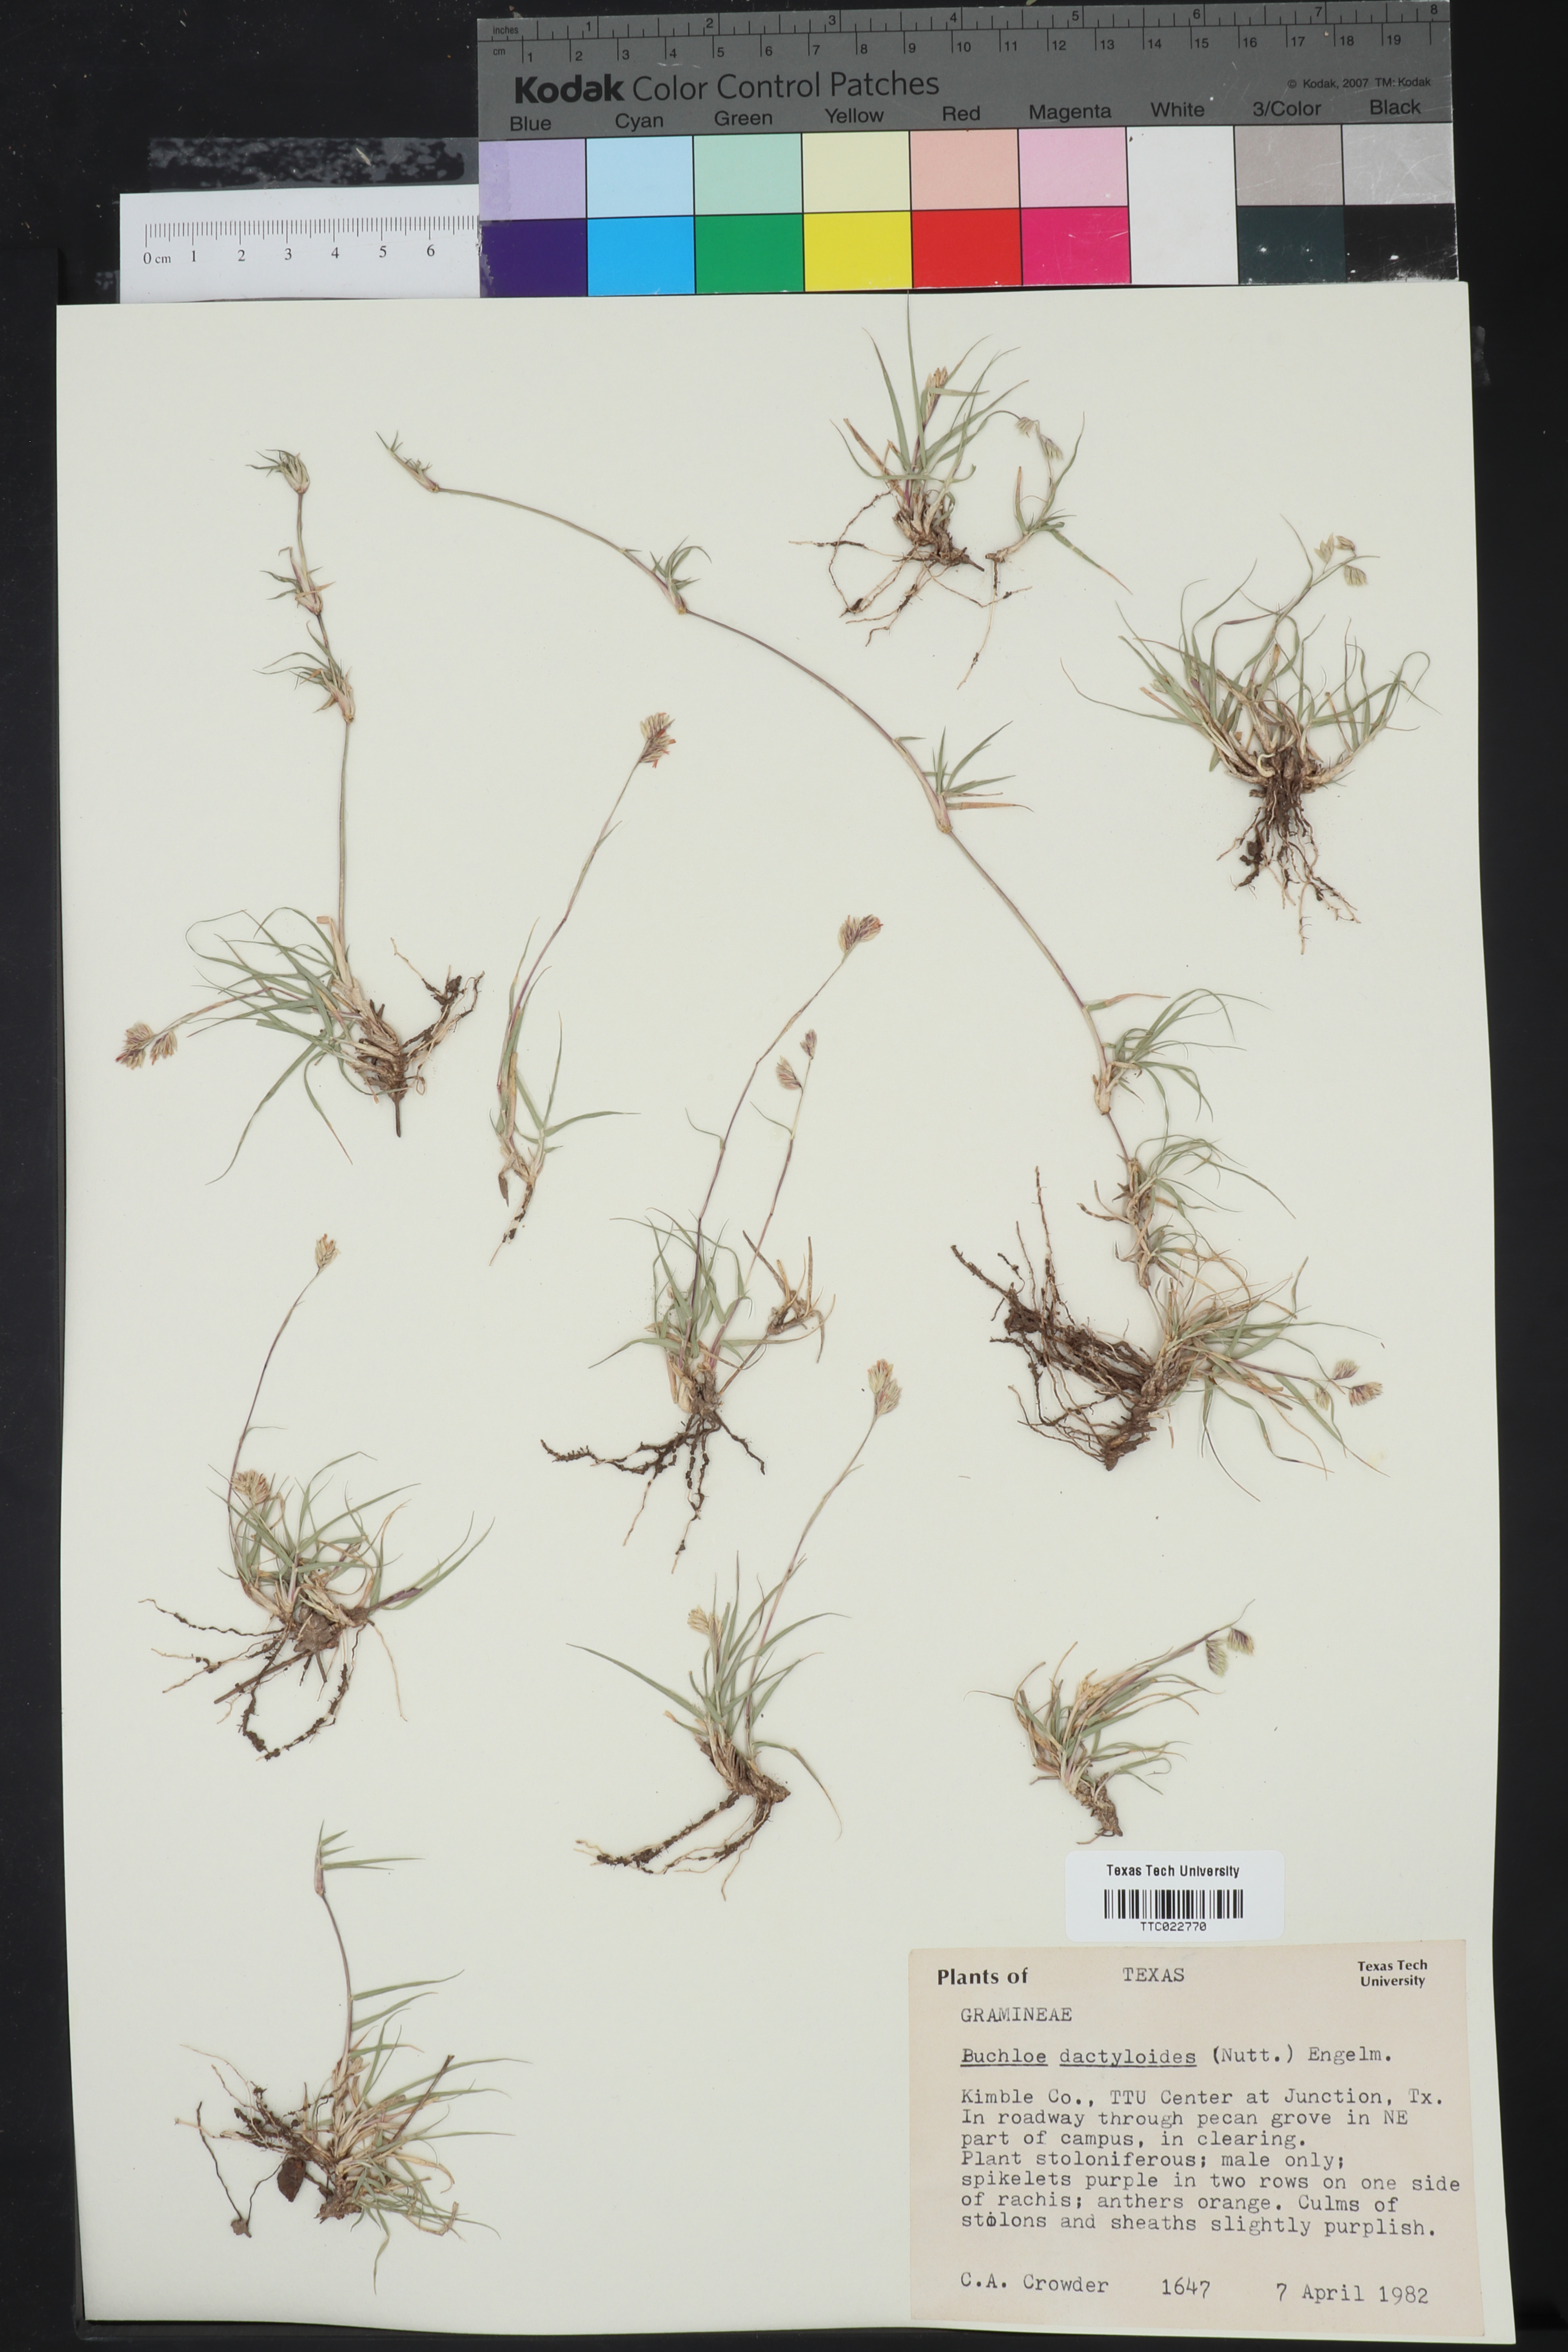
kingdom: Plantae
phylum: Tracheophyta
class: Liliopsida
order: Poales
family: Poaceae
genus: Bouteloua
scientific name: Bouteloua dactyloides
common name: Buffalo grass
